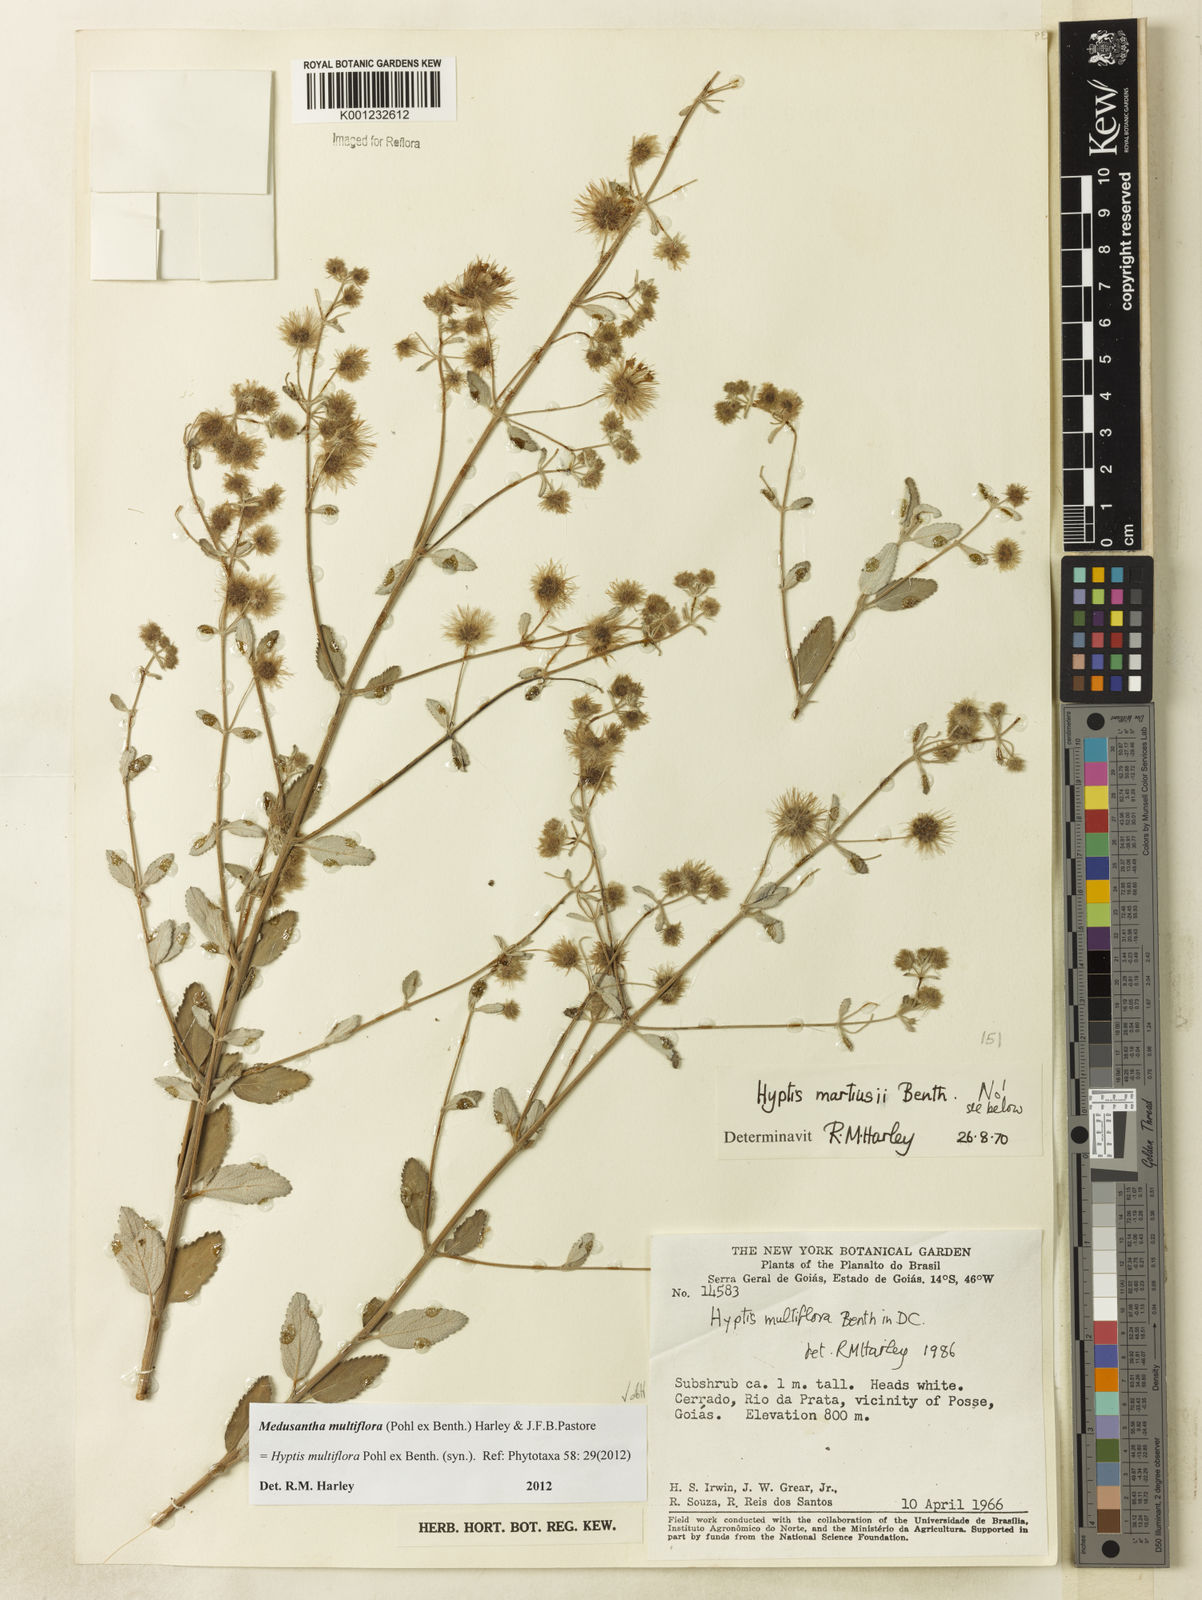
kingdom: Plantae
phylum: Tracheophyta
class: Magnoliopsida
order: Lamiales
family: Lamiaceae
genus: Medusantha
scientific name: Medusantha multiflora
